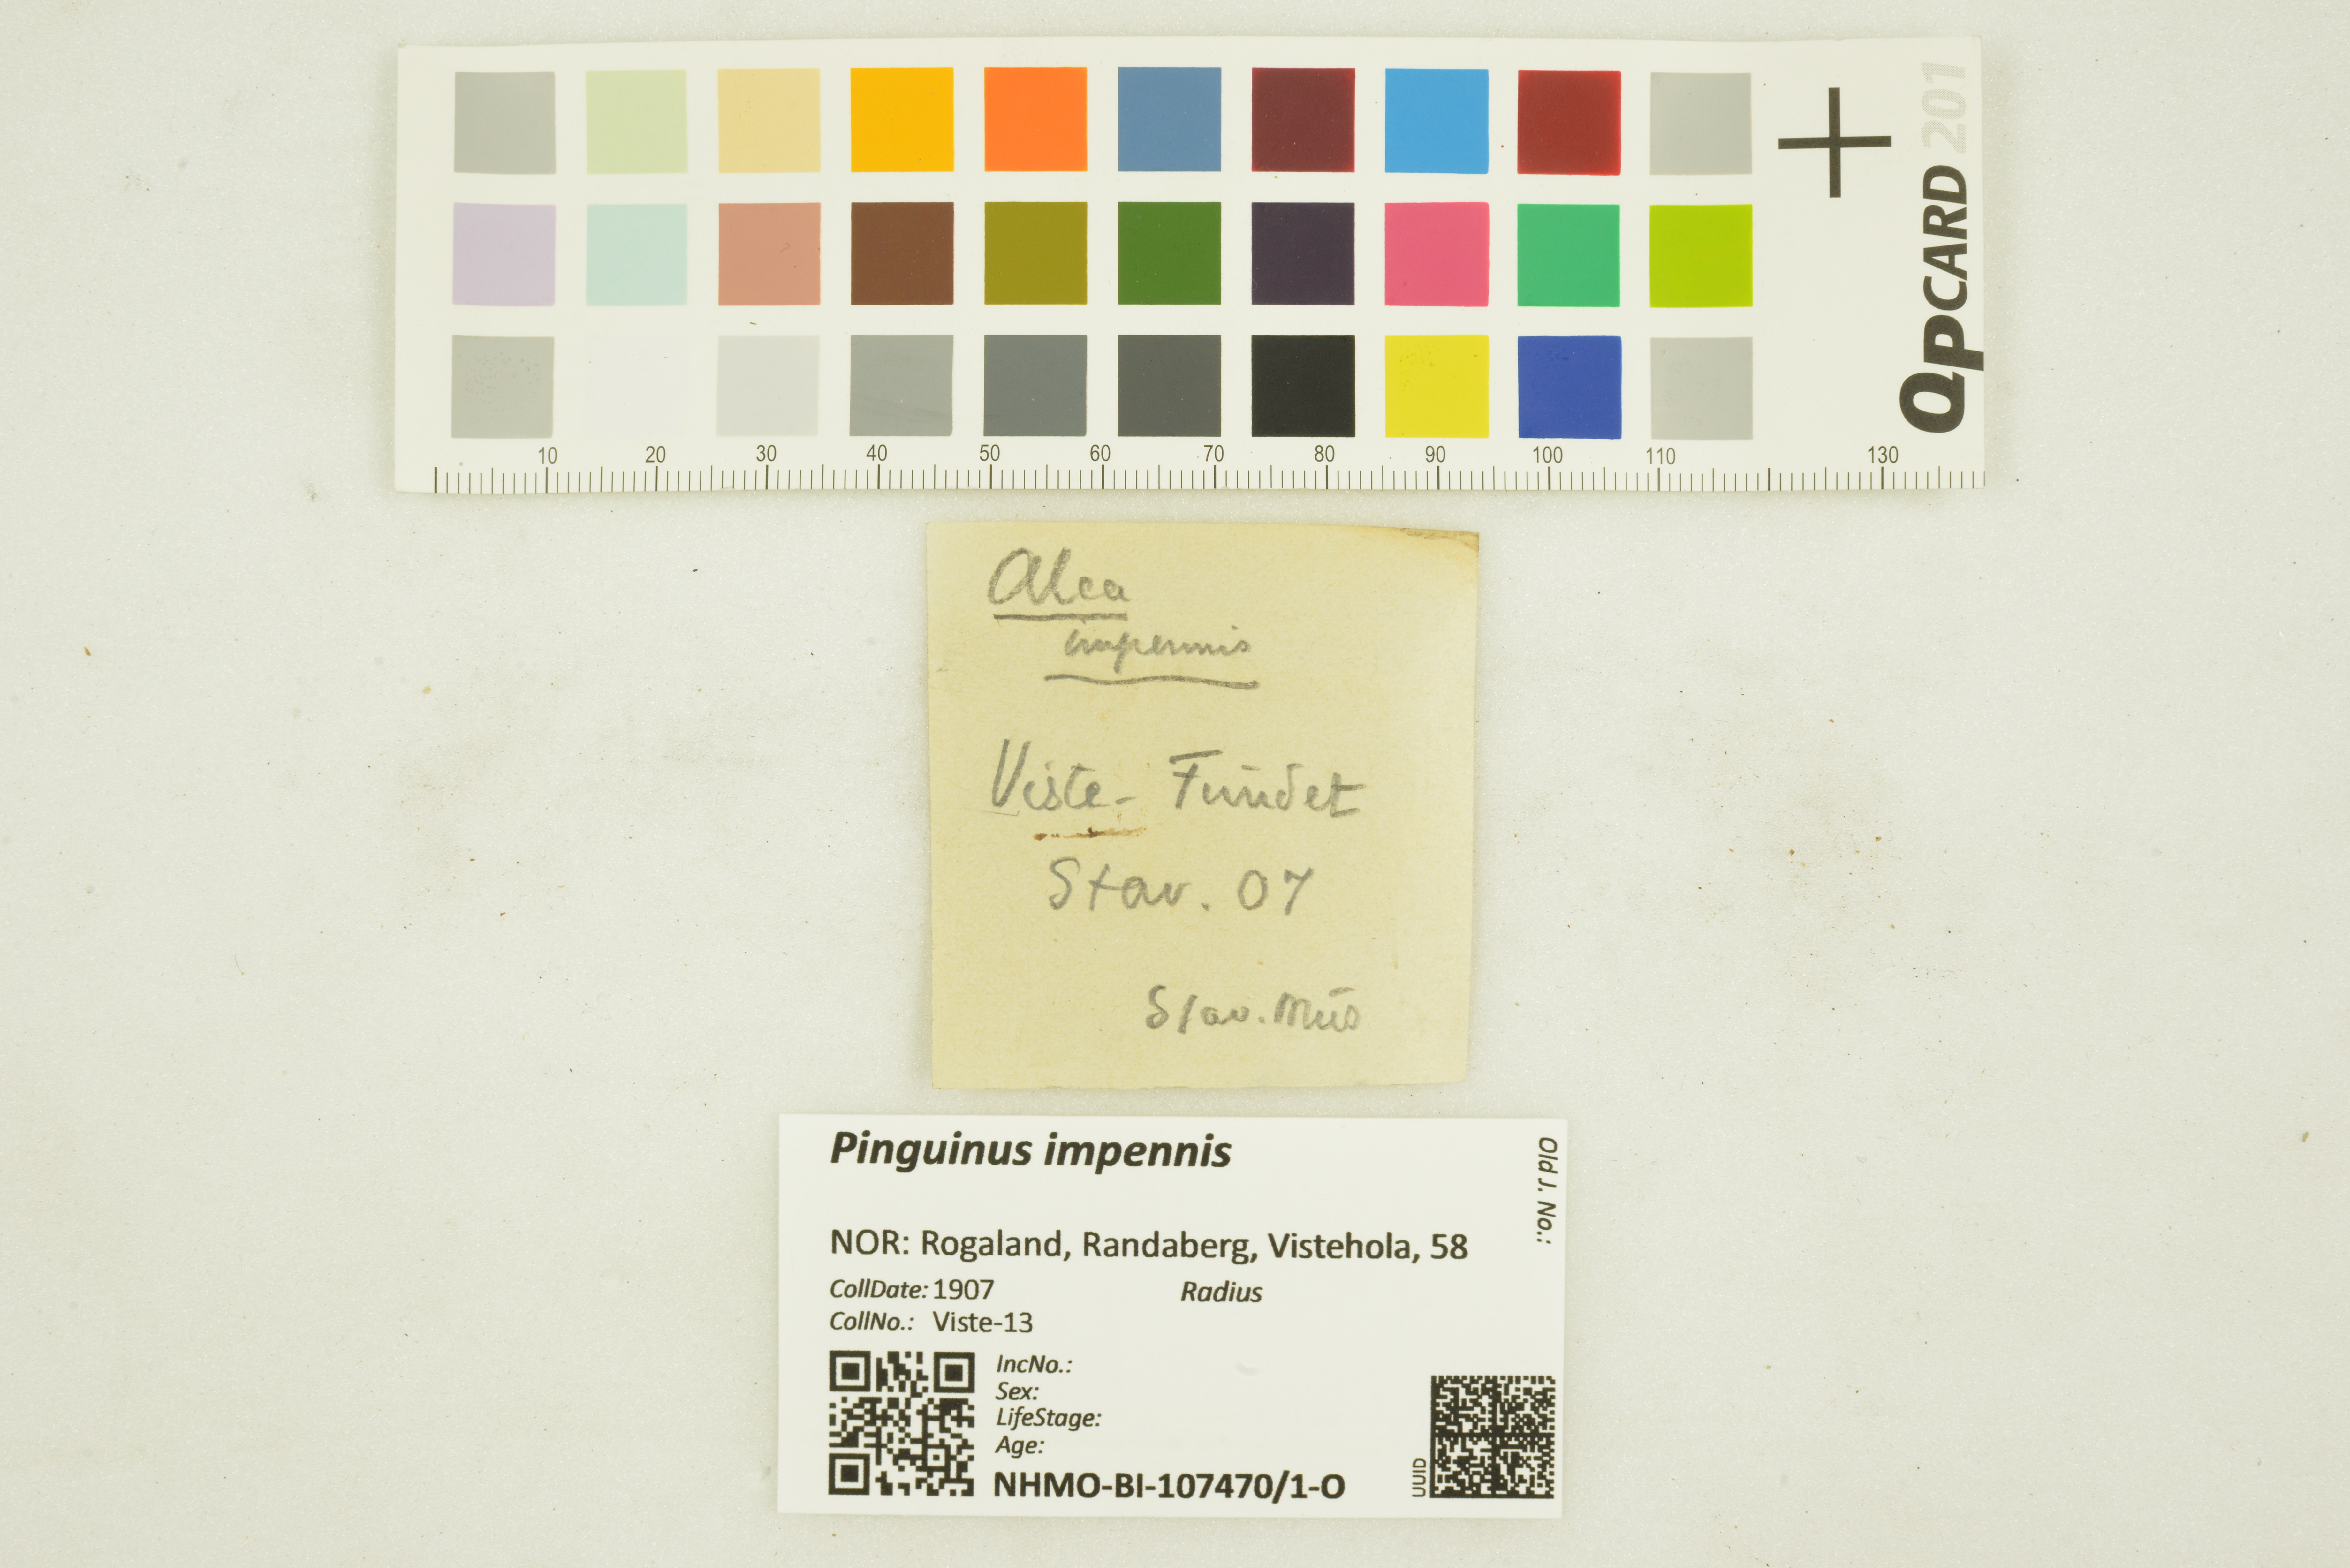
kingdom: Animalia
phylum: Chordata
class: Aves
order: Charadriiformes
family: Alcidae
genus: Pinguinus
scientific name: Pinguinus impennis
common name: Great auk
